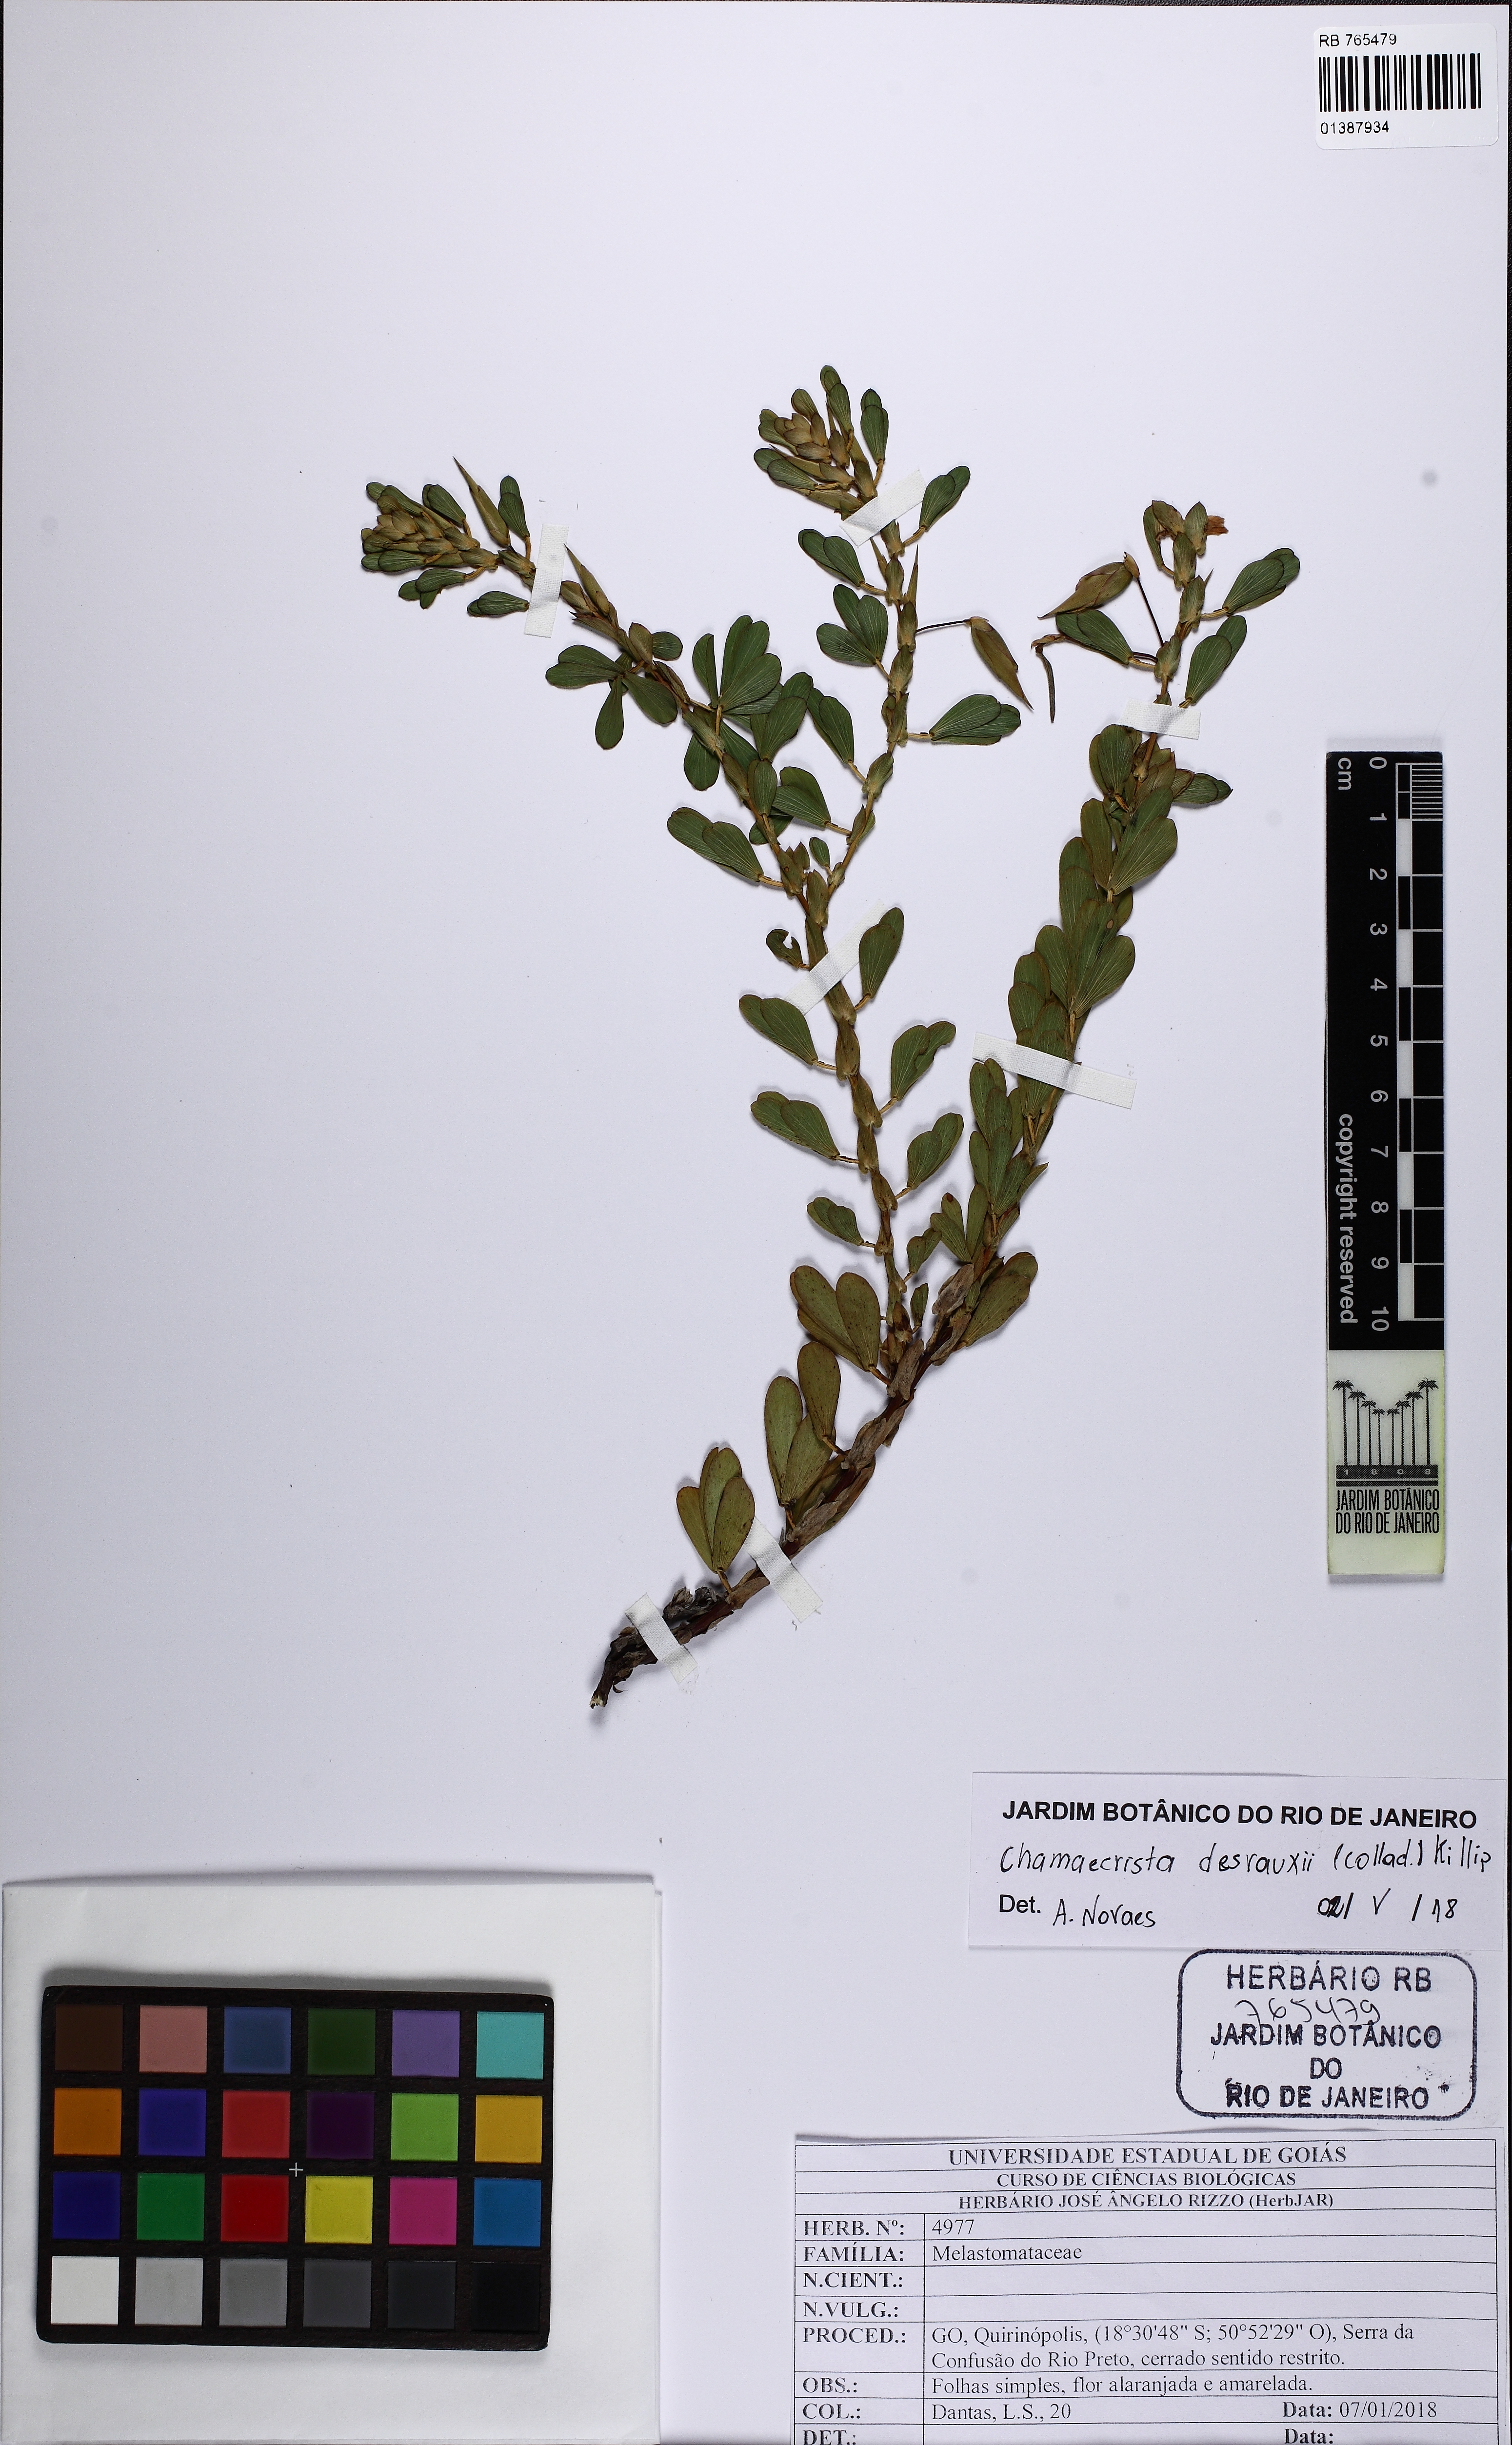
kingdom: Plantae
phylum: Tracheophyta
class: Magnoliopsida
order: Fabales
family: Fabaceae
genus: Chamaecrista
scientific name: Chamaecrista desvauxii
